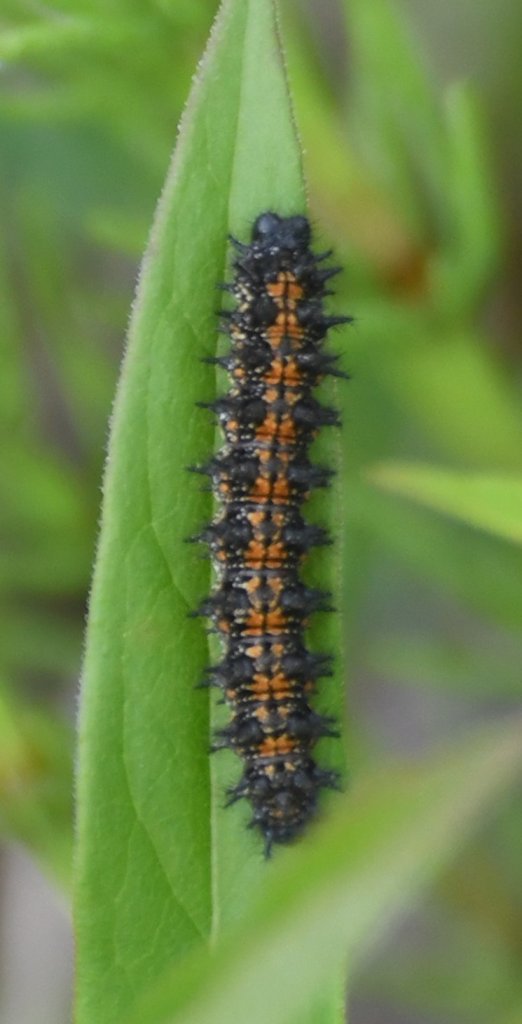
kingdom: Animalia
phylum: Arthropoda
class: Insecta
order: Lepidoptera
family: Nymphalidae
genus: Chlosyne
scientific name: Chlosyne harrisii
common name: Harris's Checkerspot
